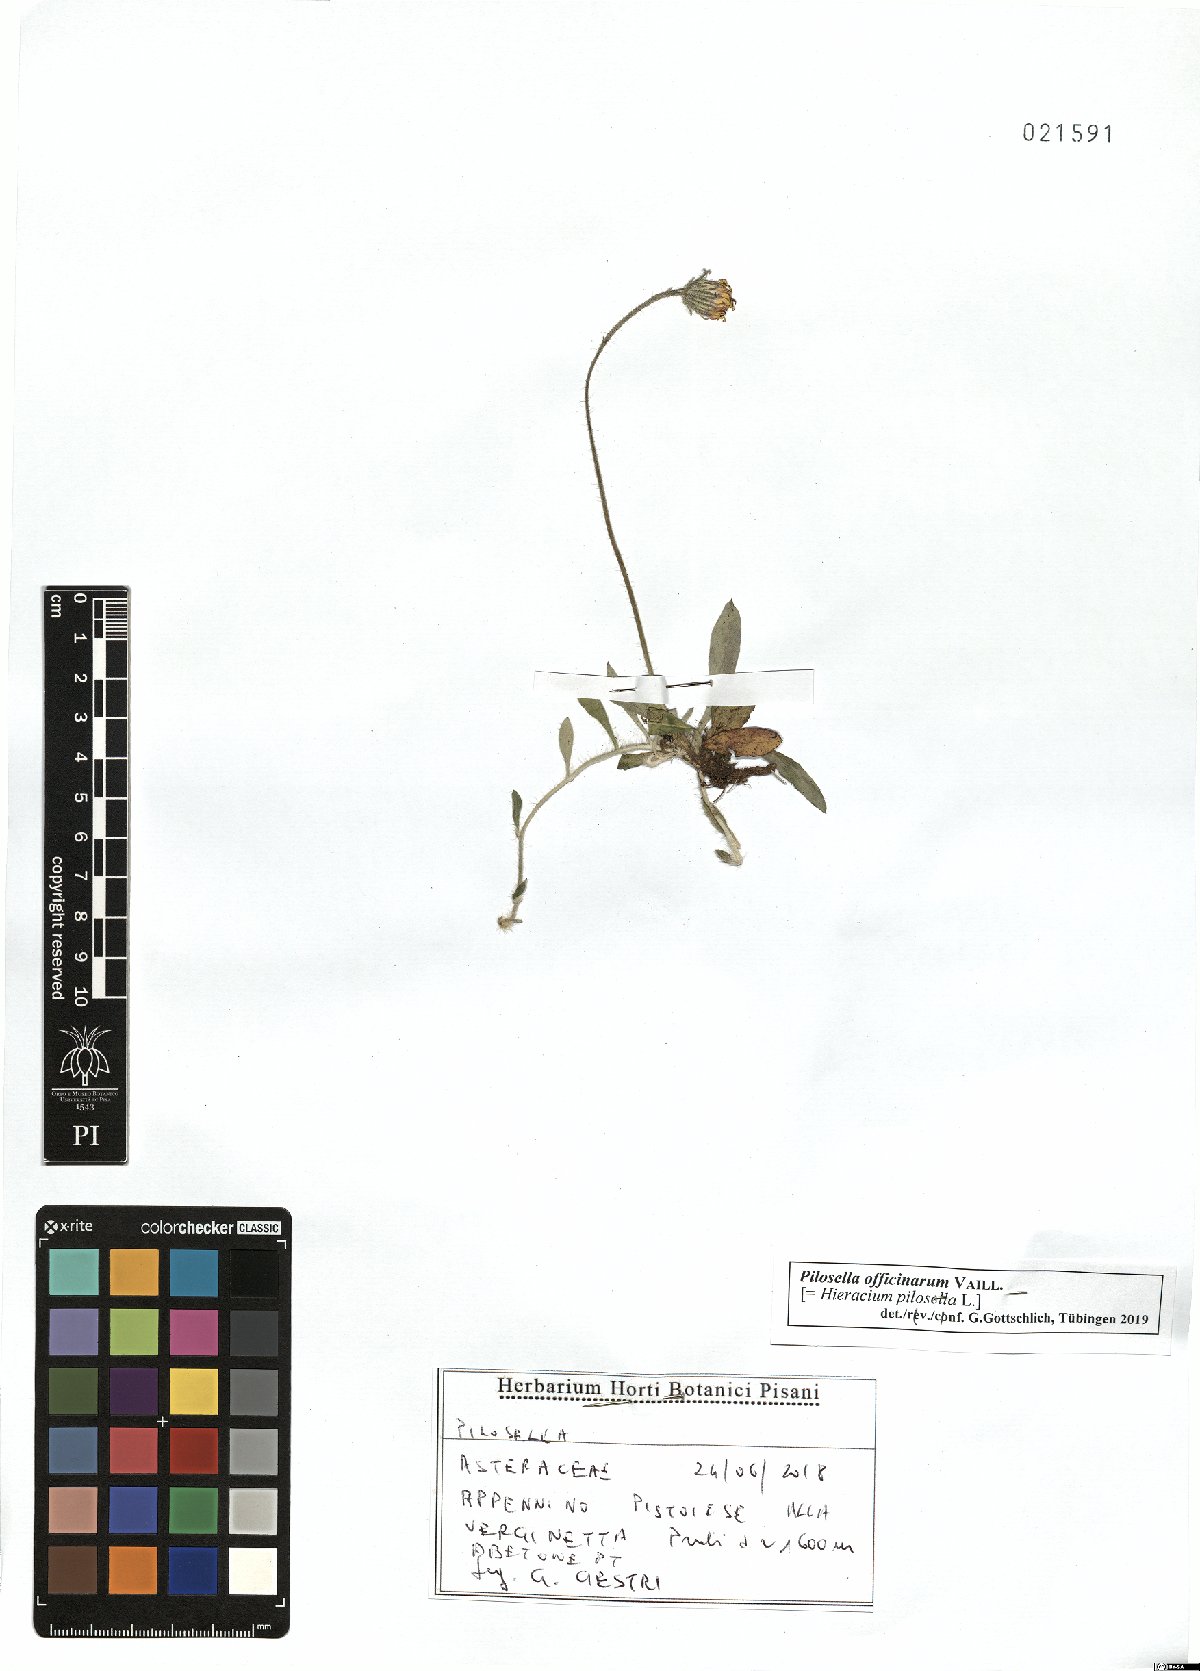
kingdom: Plantae
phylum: Tracheophyta
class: Magnoliopsida
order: Asterales
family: Asteraceae
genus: Pilosella
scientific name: Pilosella officinarum
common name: Mouse-ear hawkweed
